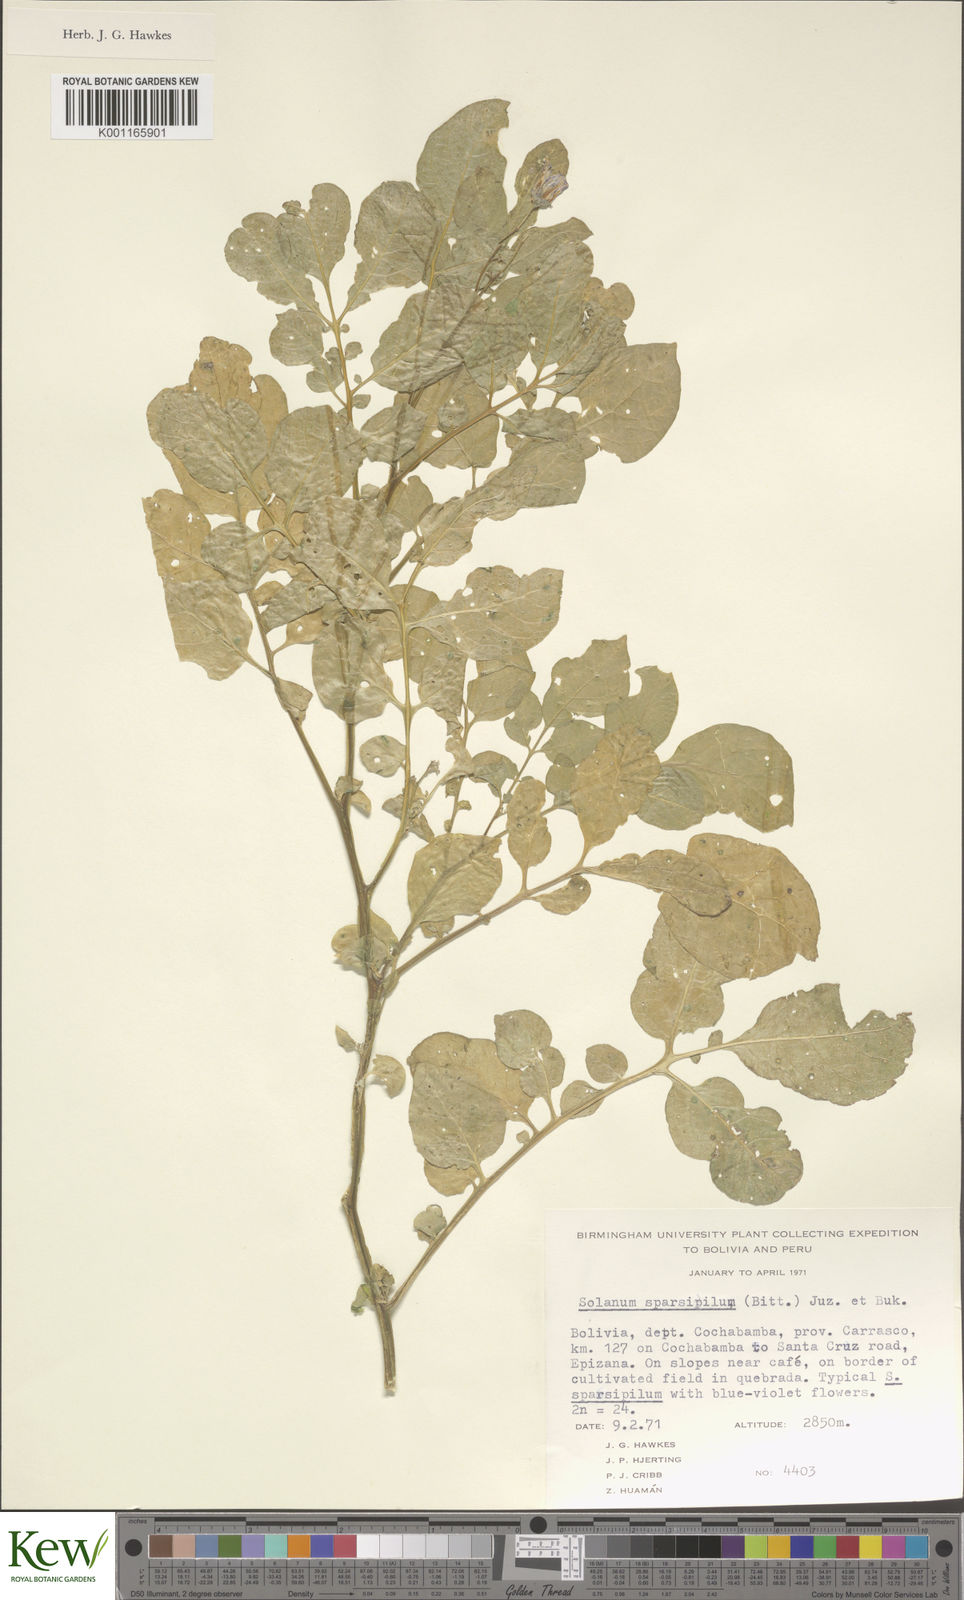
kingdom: Plantae
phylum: Tracheophyta
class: Magnoliopsida
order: Solanales
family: Solanaceae
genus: Solanum
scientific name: Solanum brevicaule
